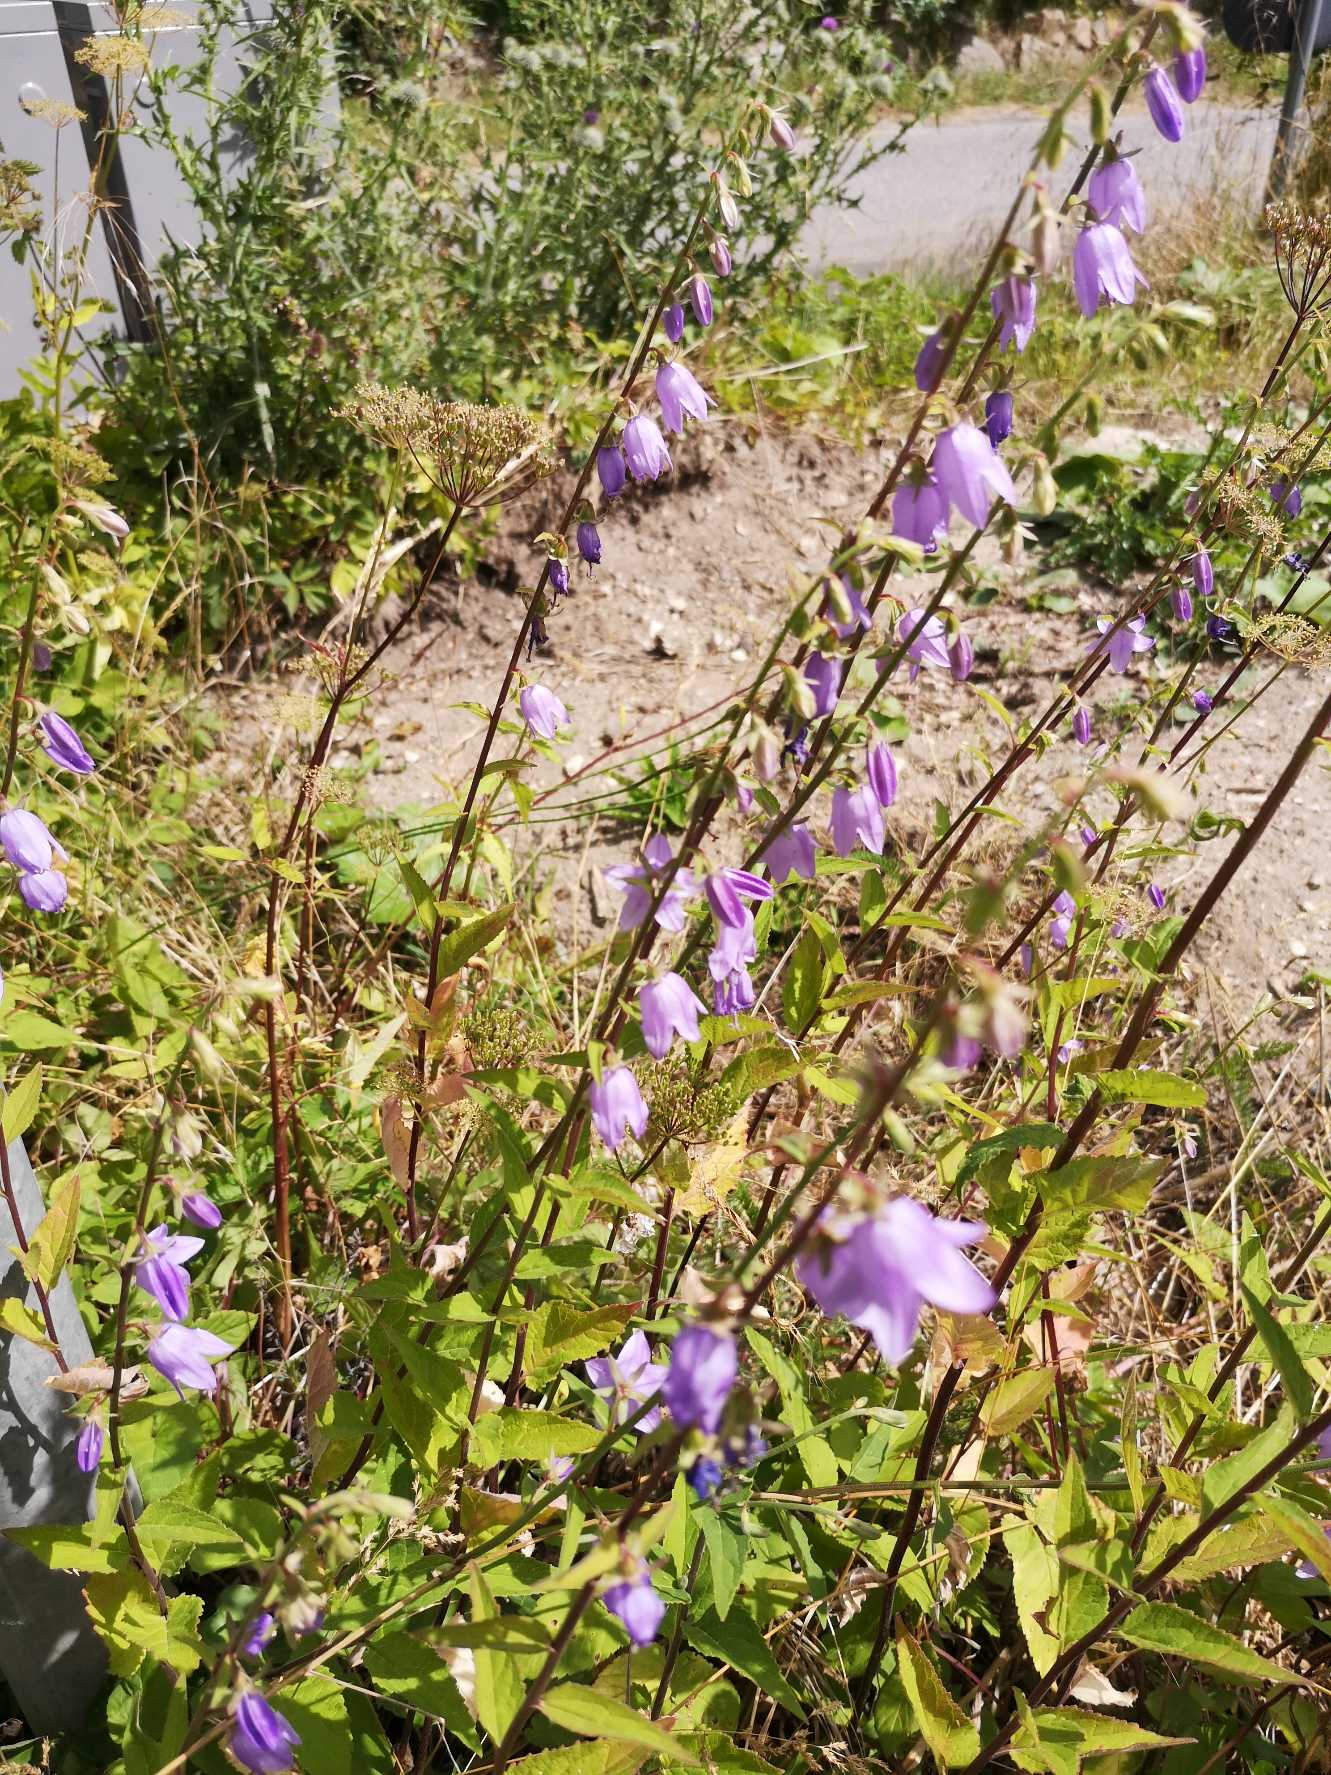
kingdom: Plantae
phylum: Tracheophyta
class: Magnoliopsida
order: Asterales
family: Campanulaceae
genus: Campanula
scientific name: Campanula rapunculoides
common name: Ensidig klokke
